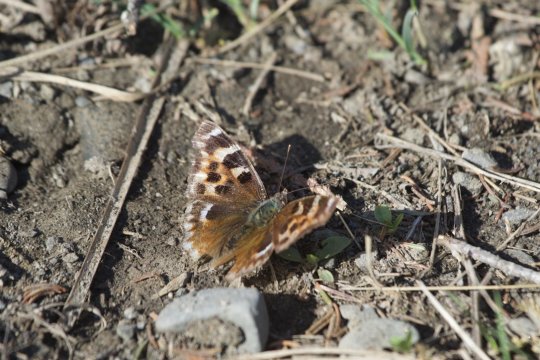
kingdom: Animalia
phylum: Arthropoda
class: Insecta
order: Lepidoptera
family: Nymphalidae
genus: Polygonia
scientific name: Polygonia vaualbum
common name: Compton Tortoiseshell
